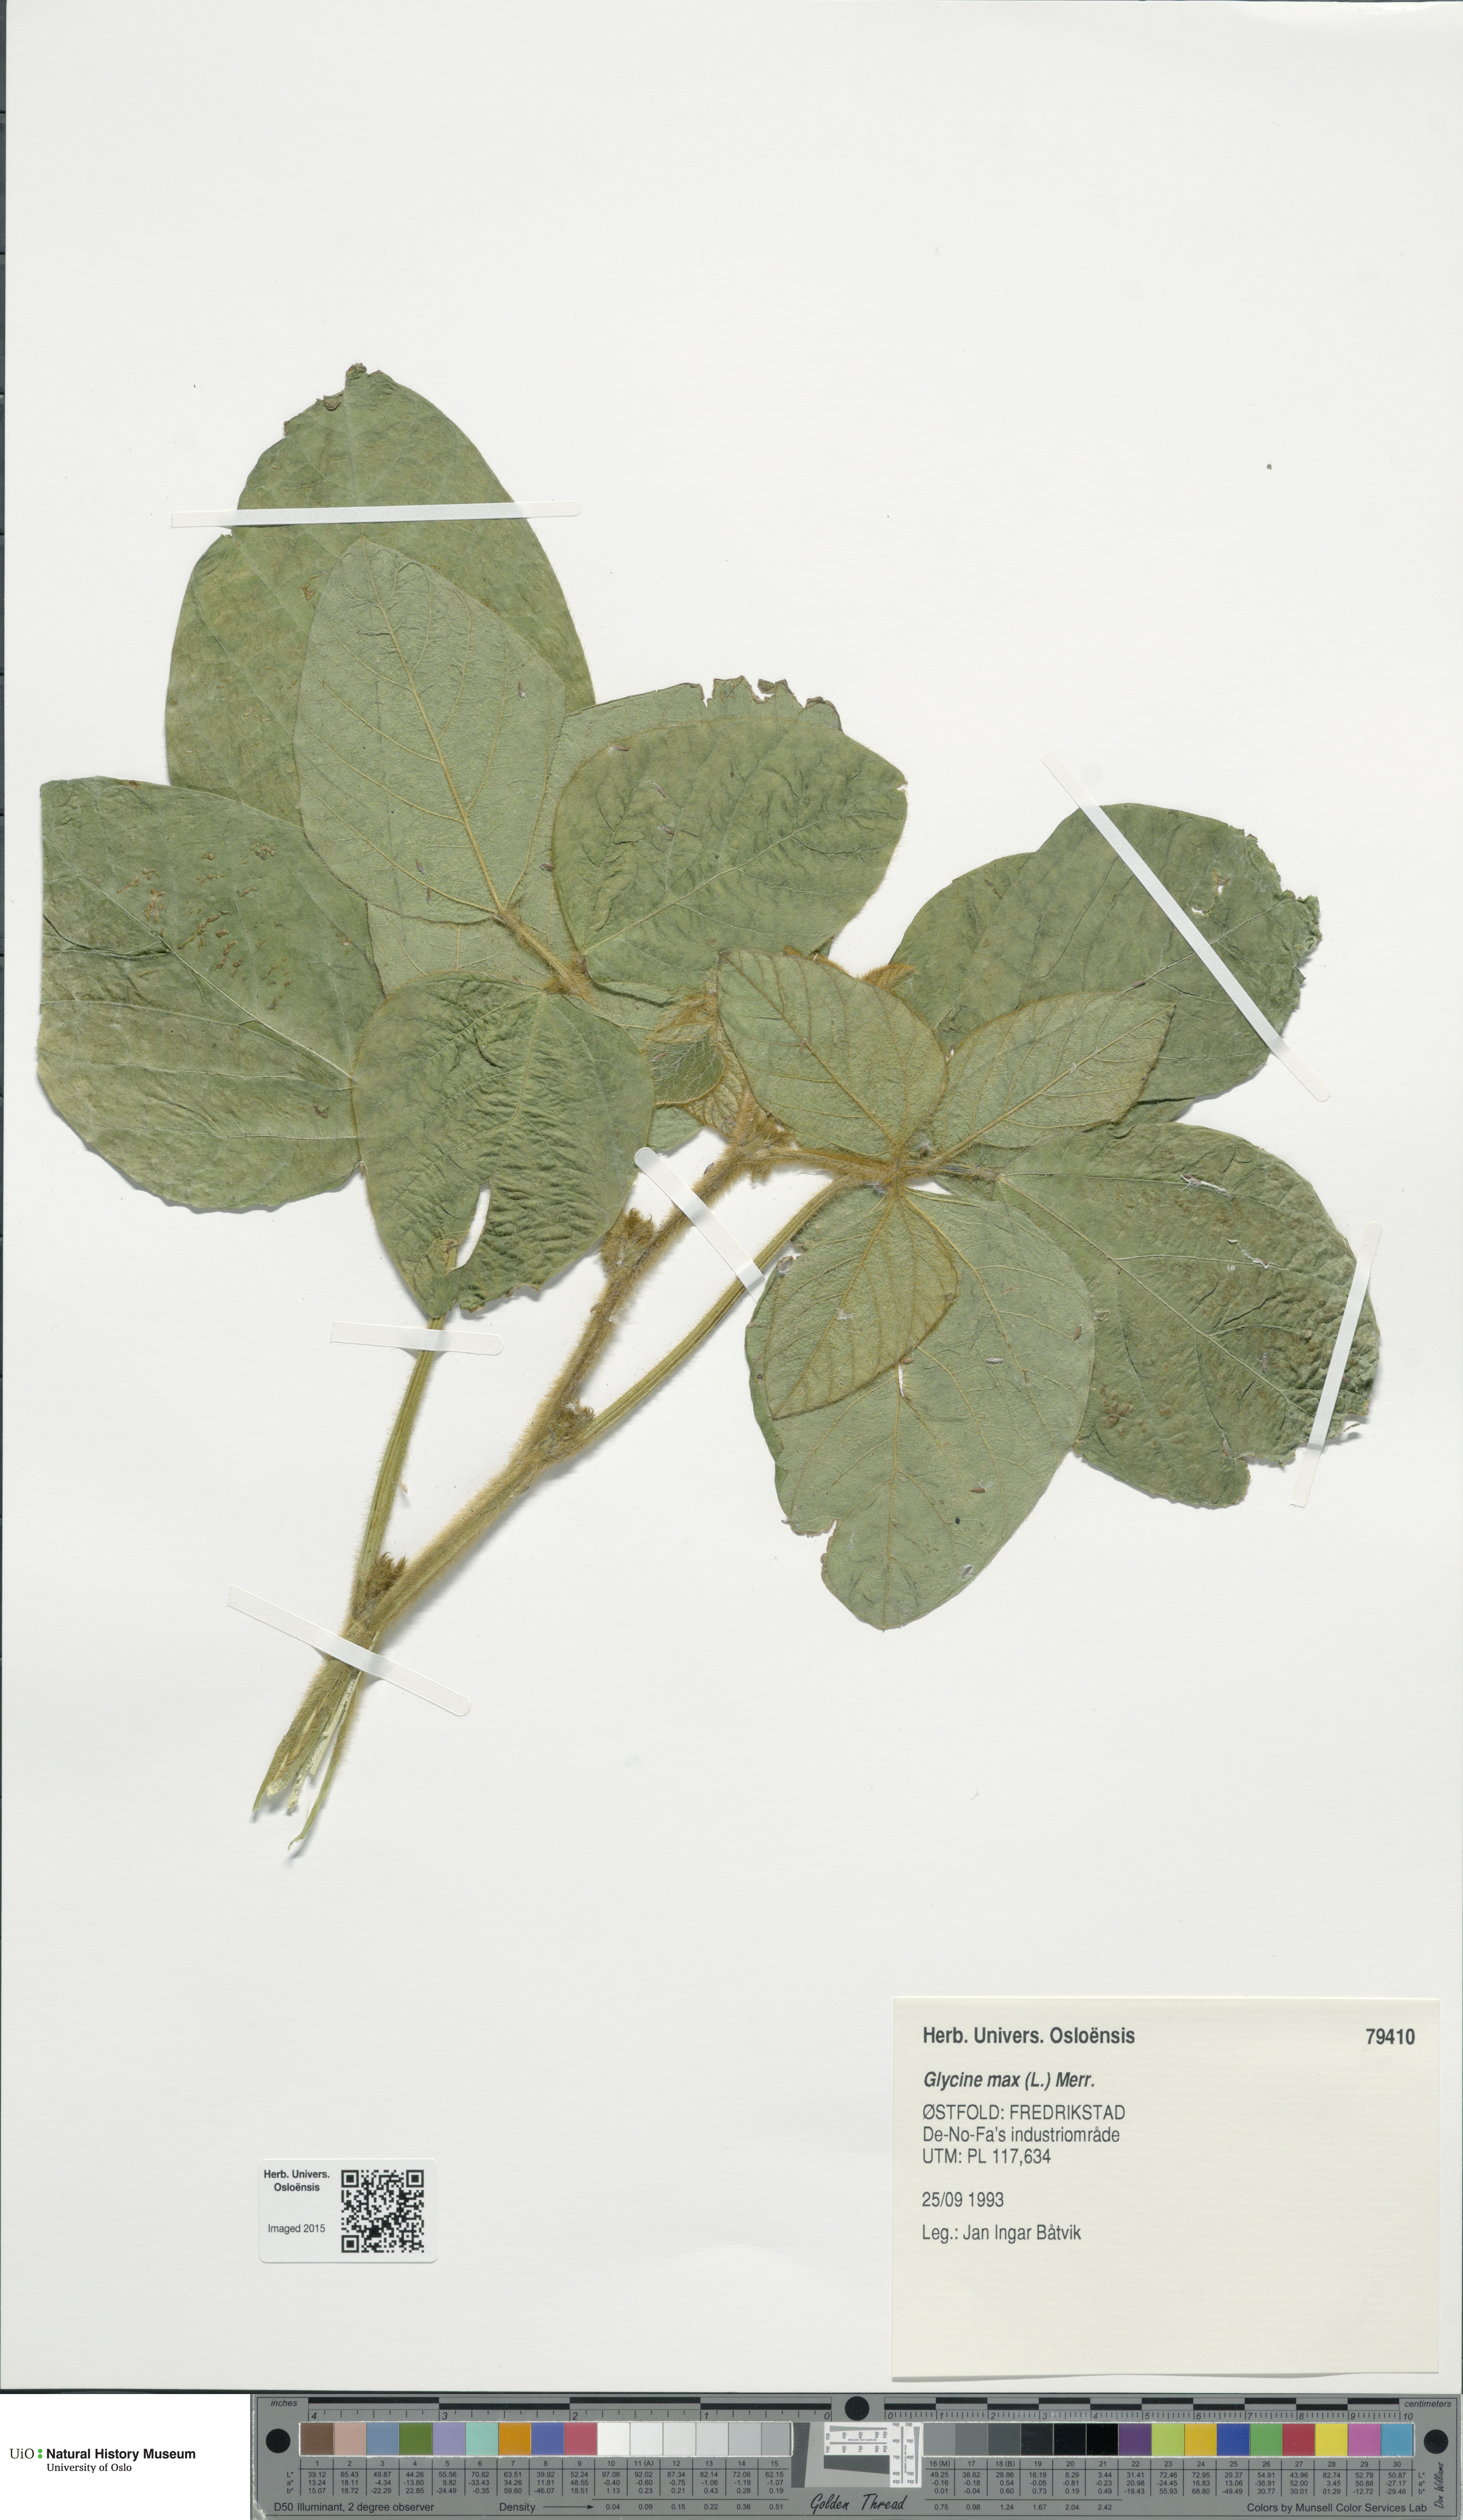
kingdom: Plantae
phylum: Tracheophyta
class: Magnoliopsida
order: Fabales
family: Fabaceae
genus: Glycine
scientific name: Glycine max
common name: Soya-bean
